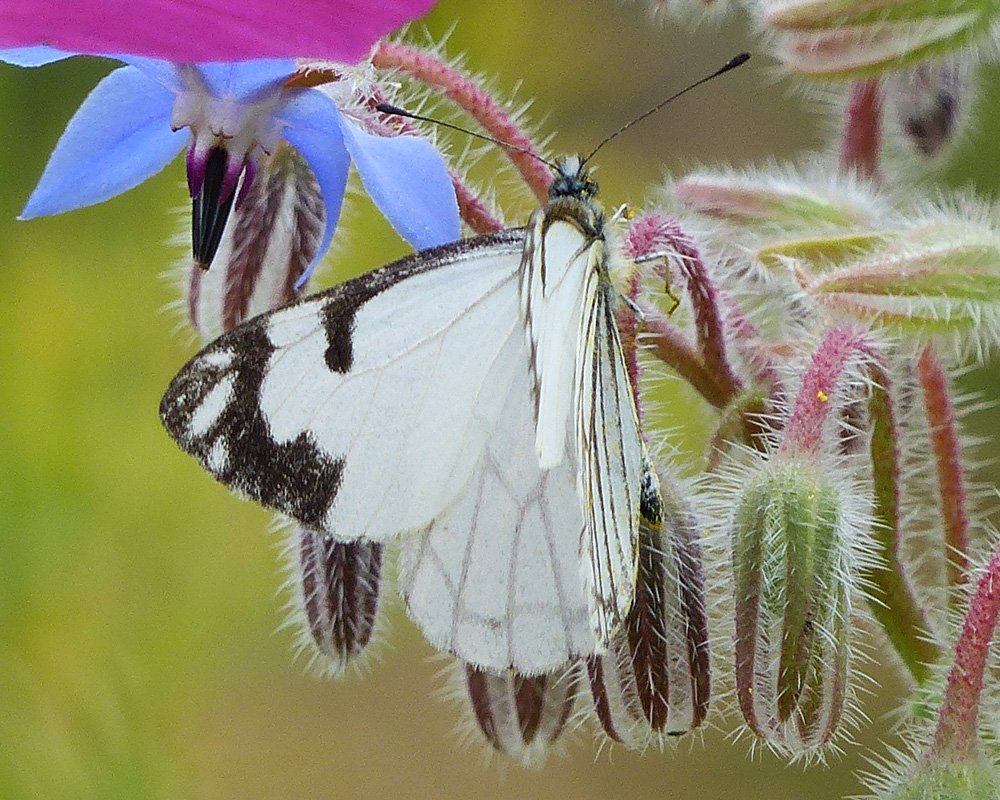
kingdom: Animalia
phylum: Arthropoda
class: Insecta
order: Lepidoptera
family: Pieridae
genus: Neophasia
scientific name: Neophasia menapia
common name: Pine White
